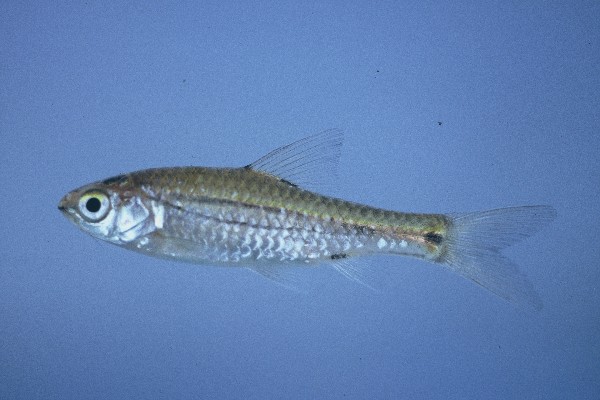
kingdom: Animalia
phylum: Chordata
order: Cypriniformes
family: Cyprinidae
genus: Enteromius
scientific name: Enteromius bifrenatus
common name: Hyphen barb
